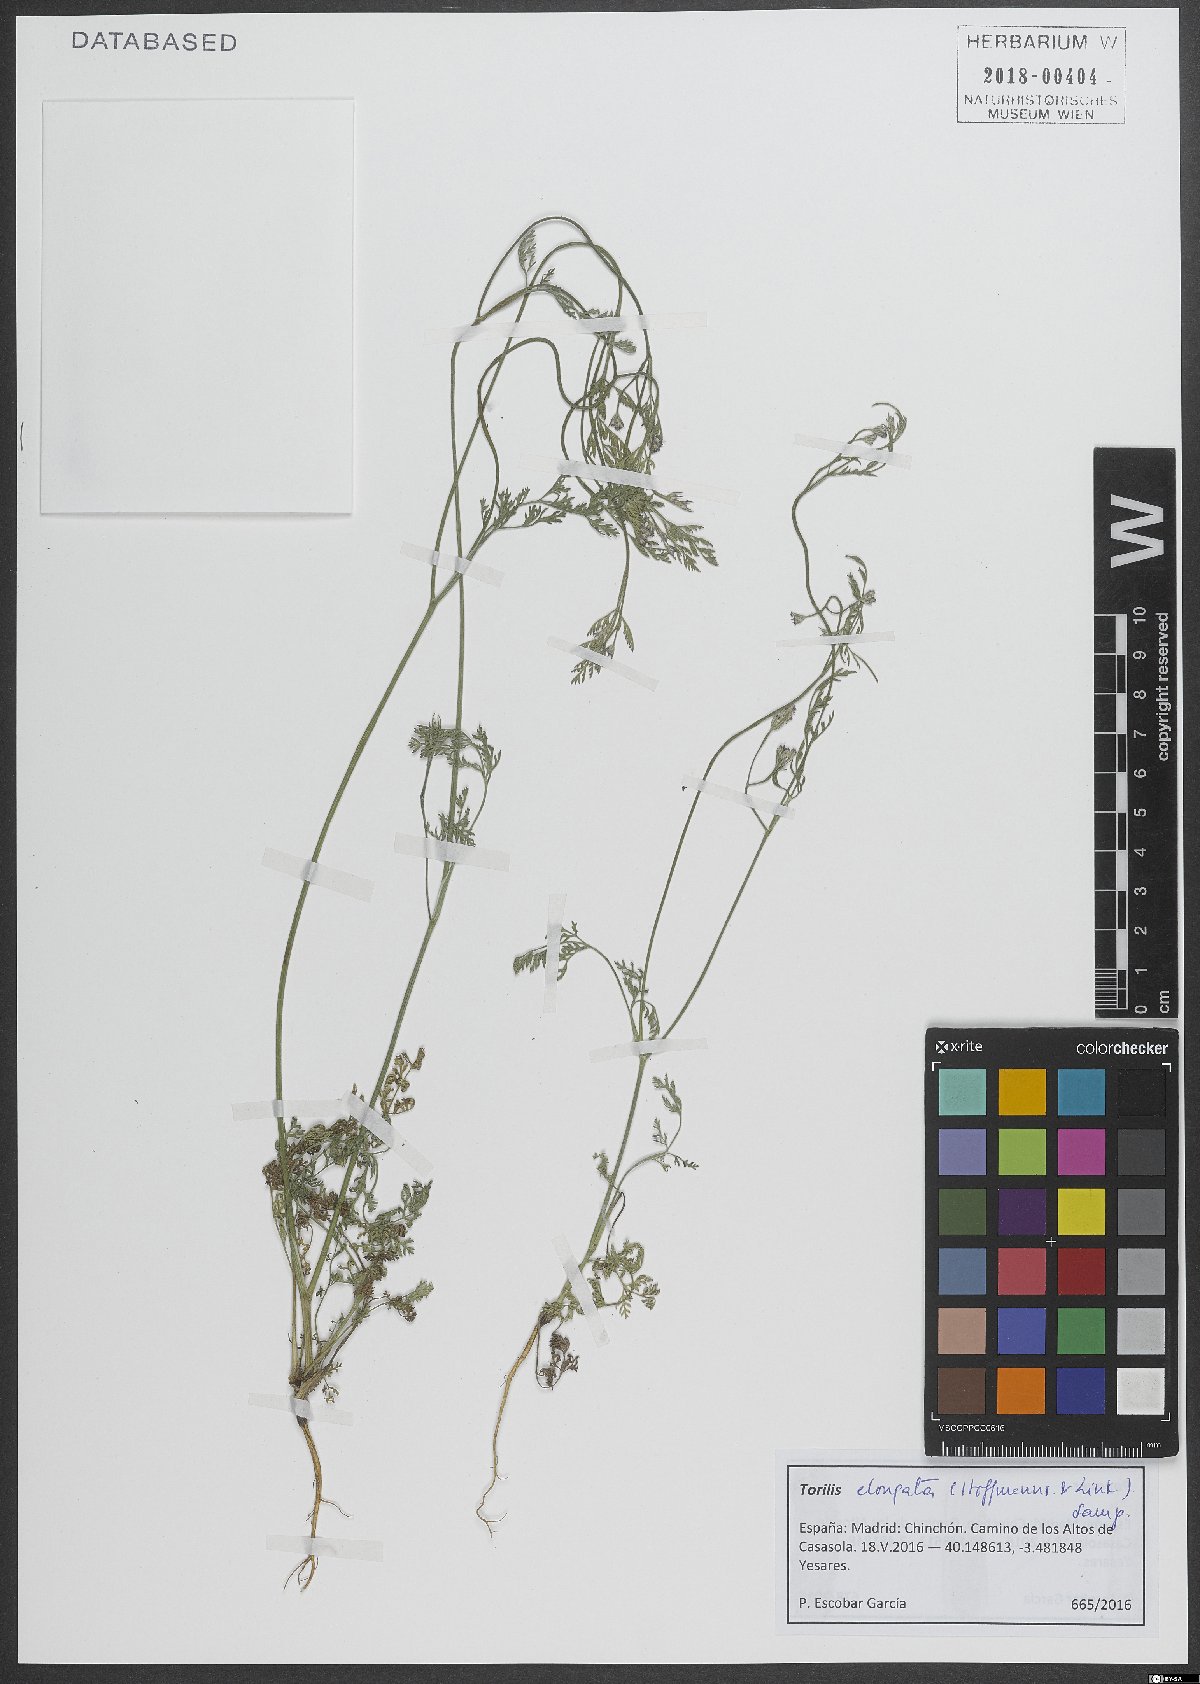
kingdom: Plantae
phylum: Tracheophyta
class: Magnoliopsida
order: Apiales
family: Apiaceae
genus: Torilis
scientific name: Torilis elongata
